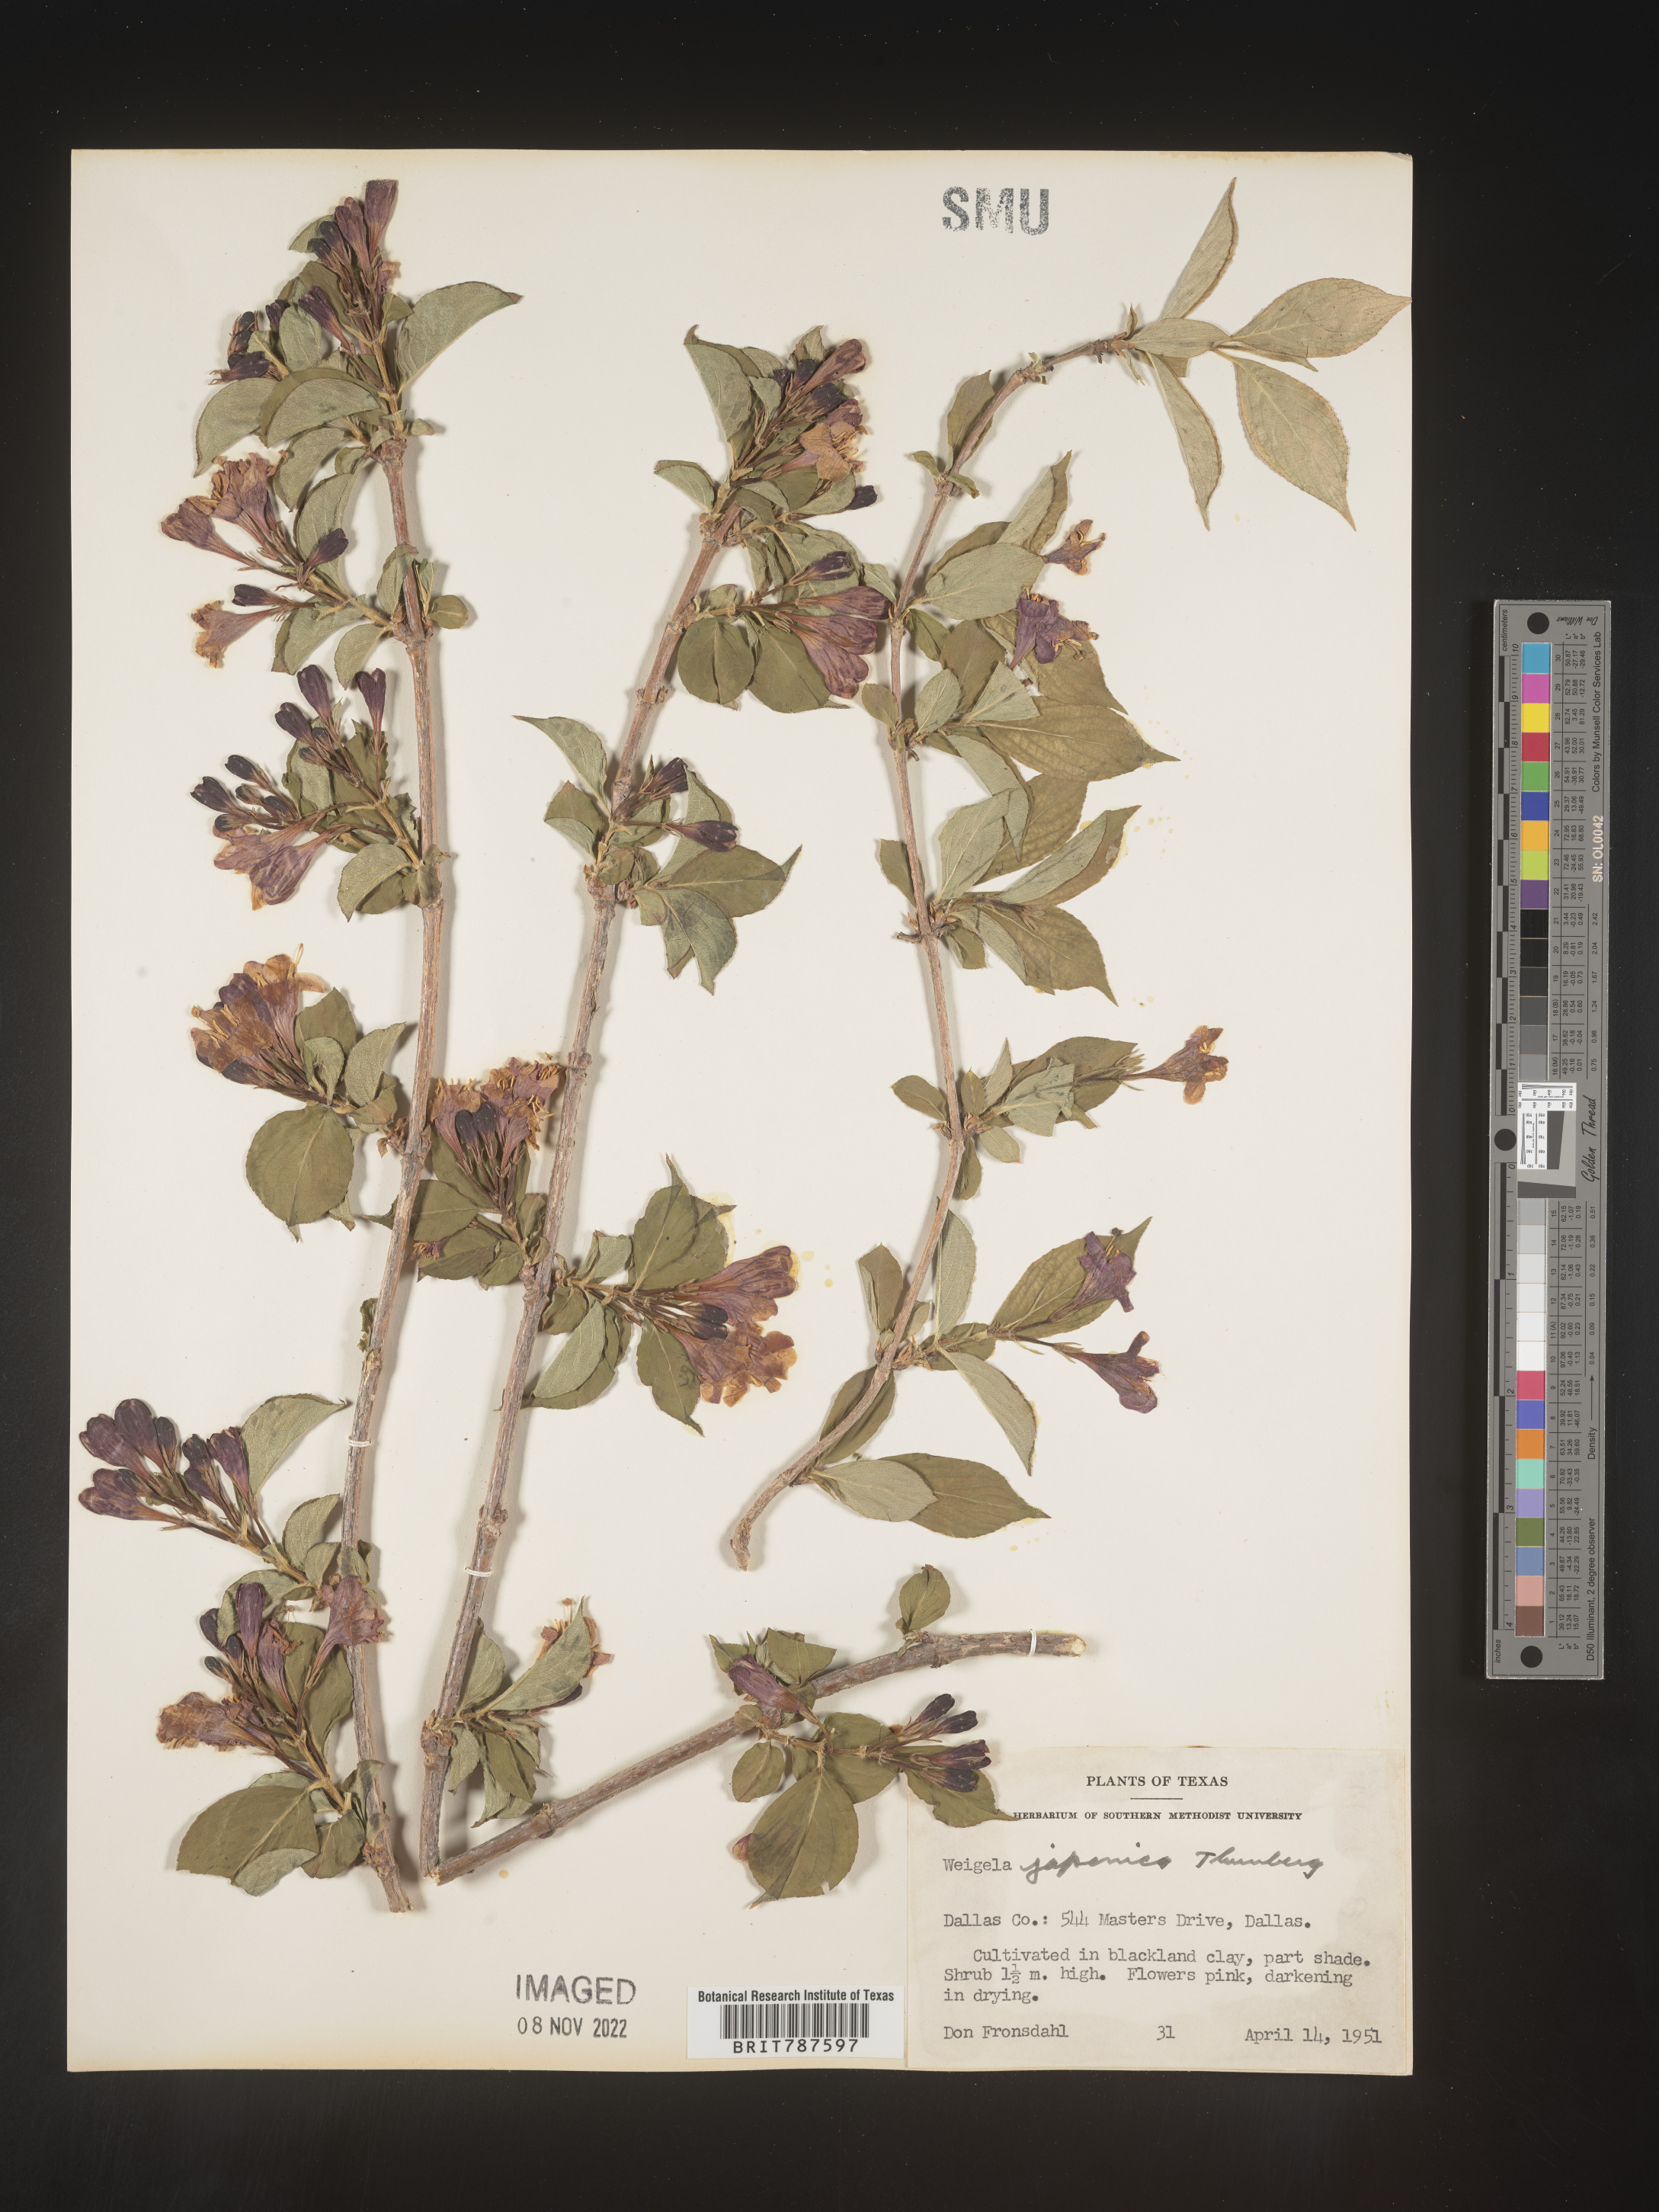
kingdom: Plantae
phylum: Tracheophyta
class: Magnoliopsida
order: Dipsacales
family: Caprifoliaceae
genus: Weigela
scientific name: Weigela
